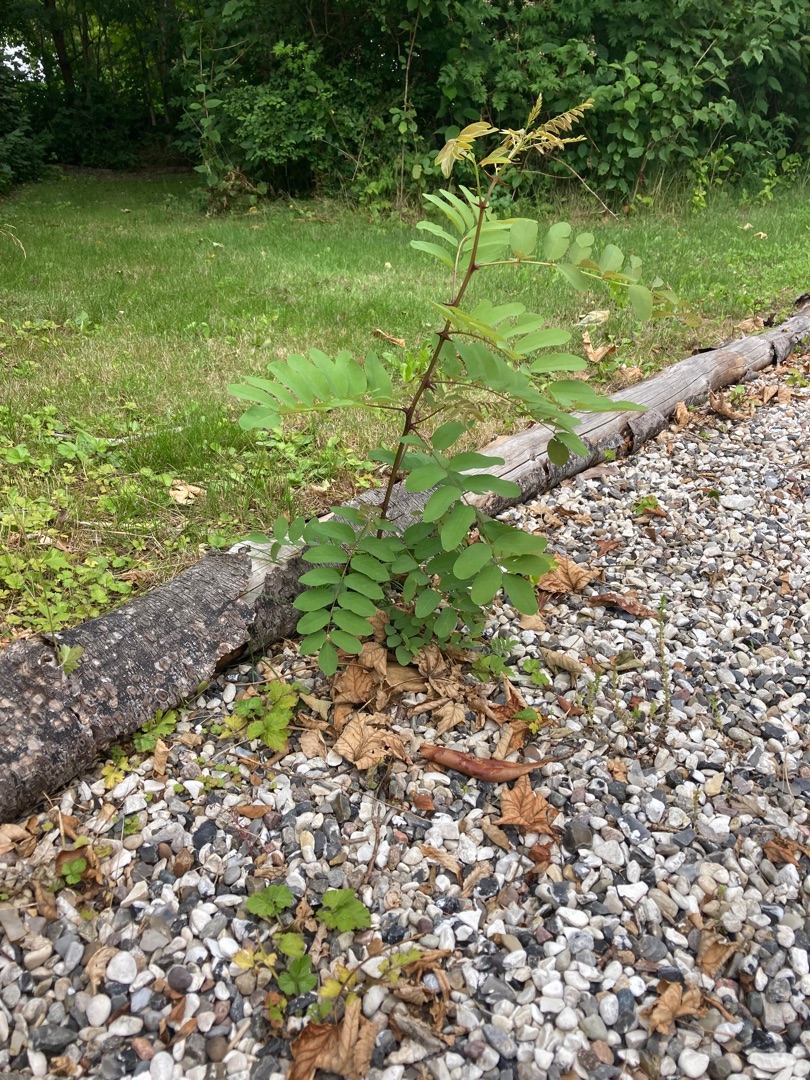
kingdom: Plantae
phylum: Tracheophyta
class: Magnoliopsida
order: Fabales
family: Fabaceae
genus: Robinia
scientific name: Robinia pseudoacacia
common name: Robinie
